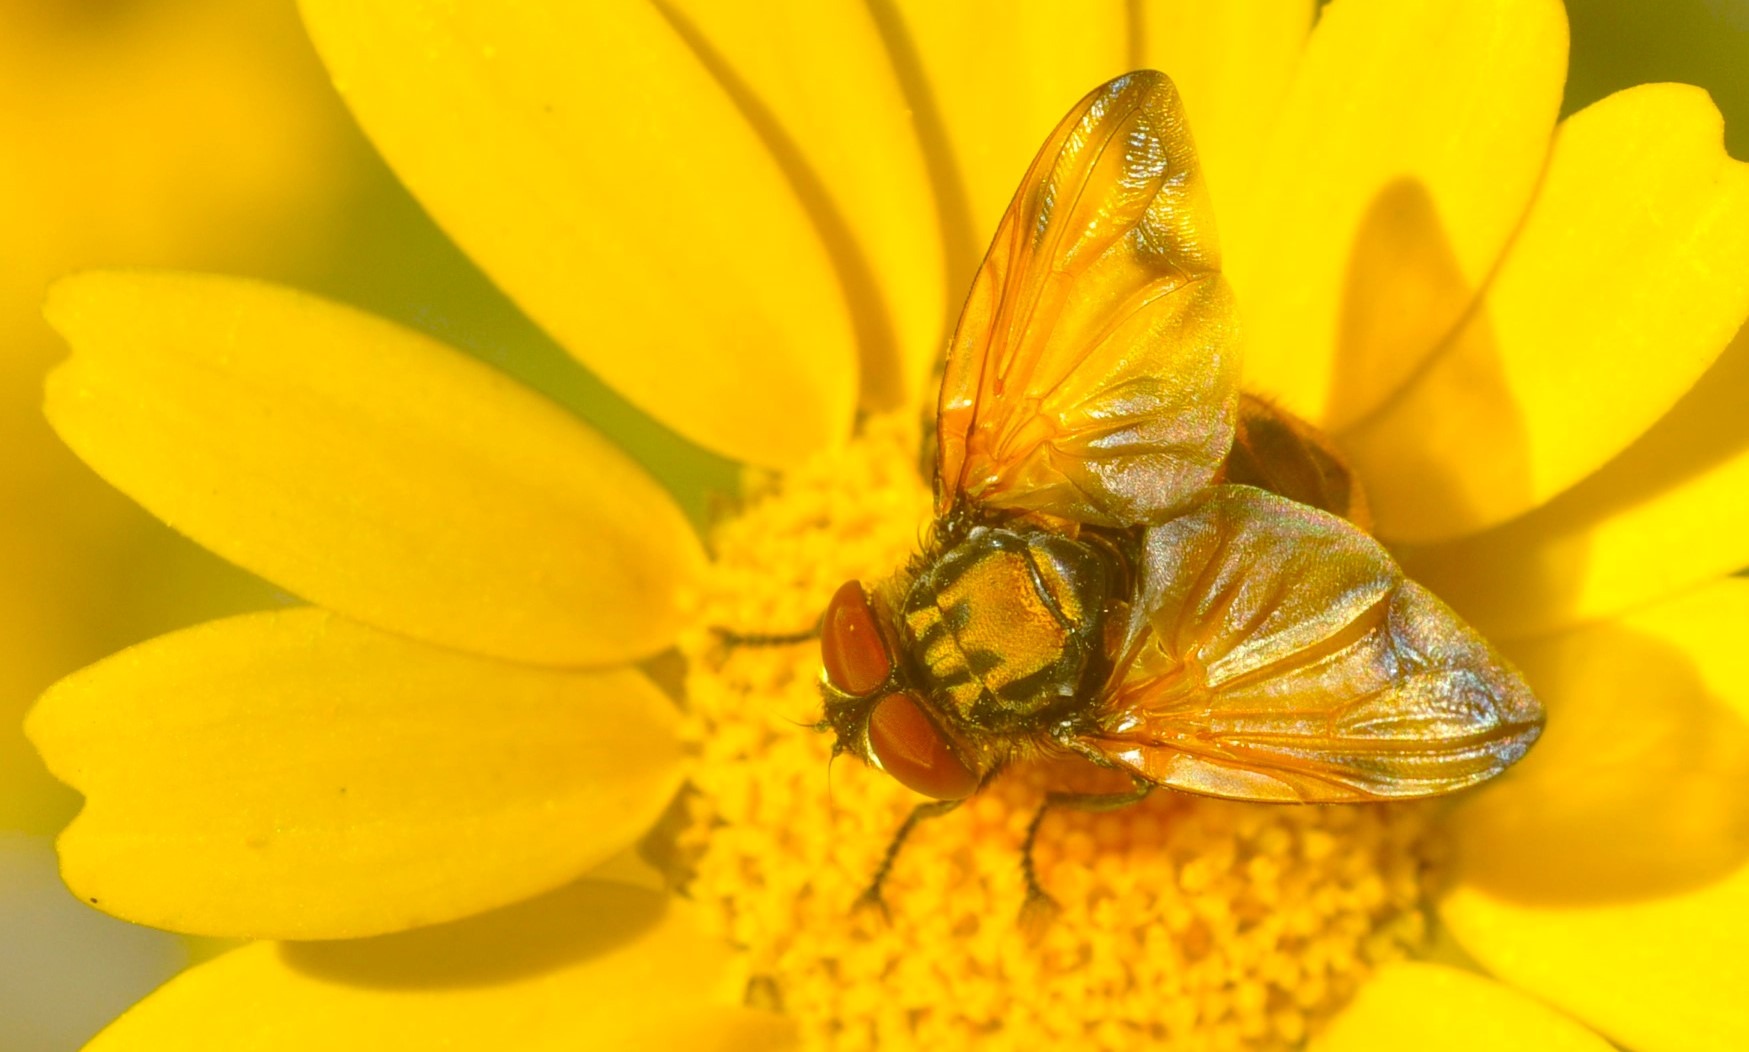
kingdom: Animalia
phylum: Arthropoda
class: Insecta
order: Diptera
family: Tachinidae
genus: Phasia
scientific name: Phasia aurigera
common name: Gylden pragtsnylteflue
